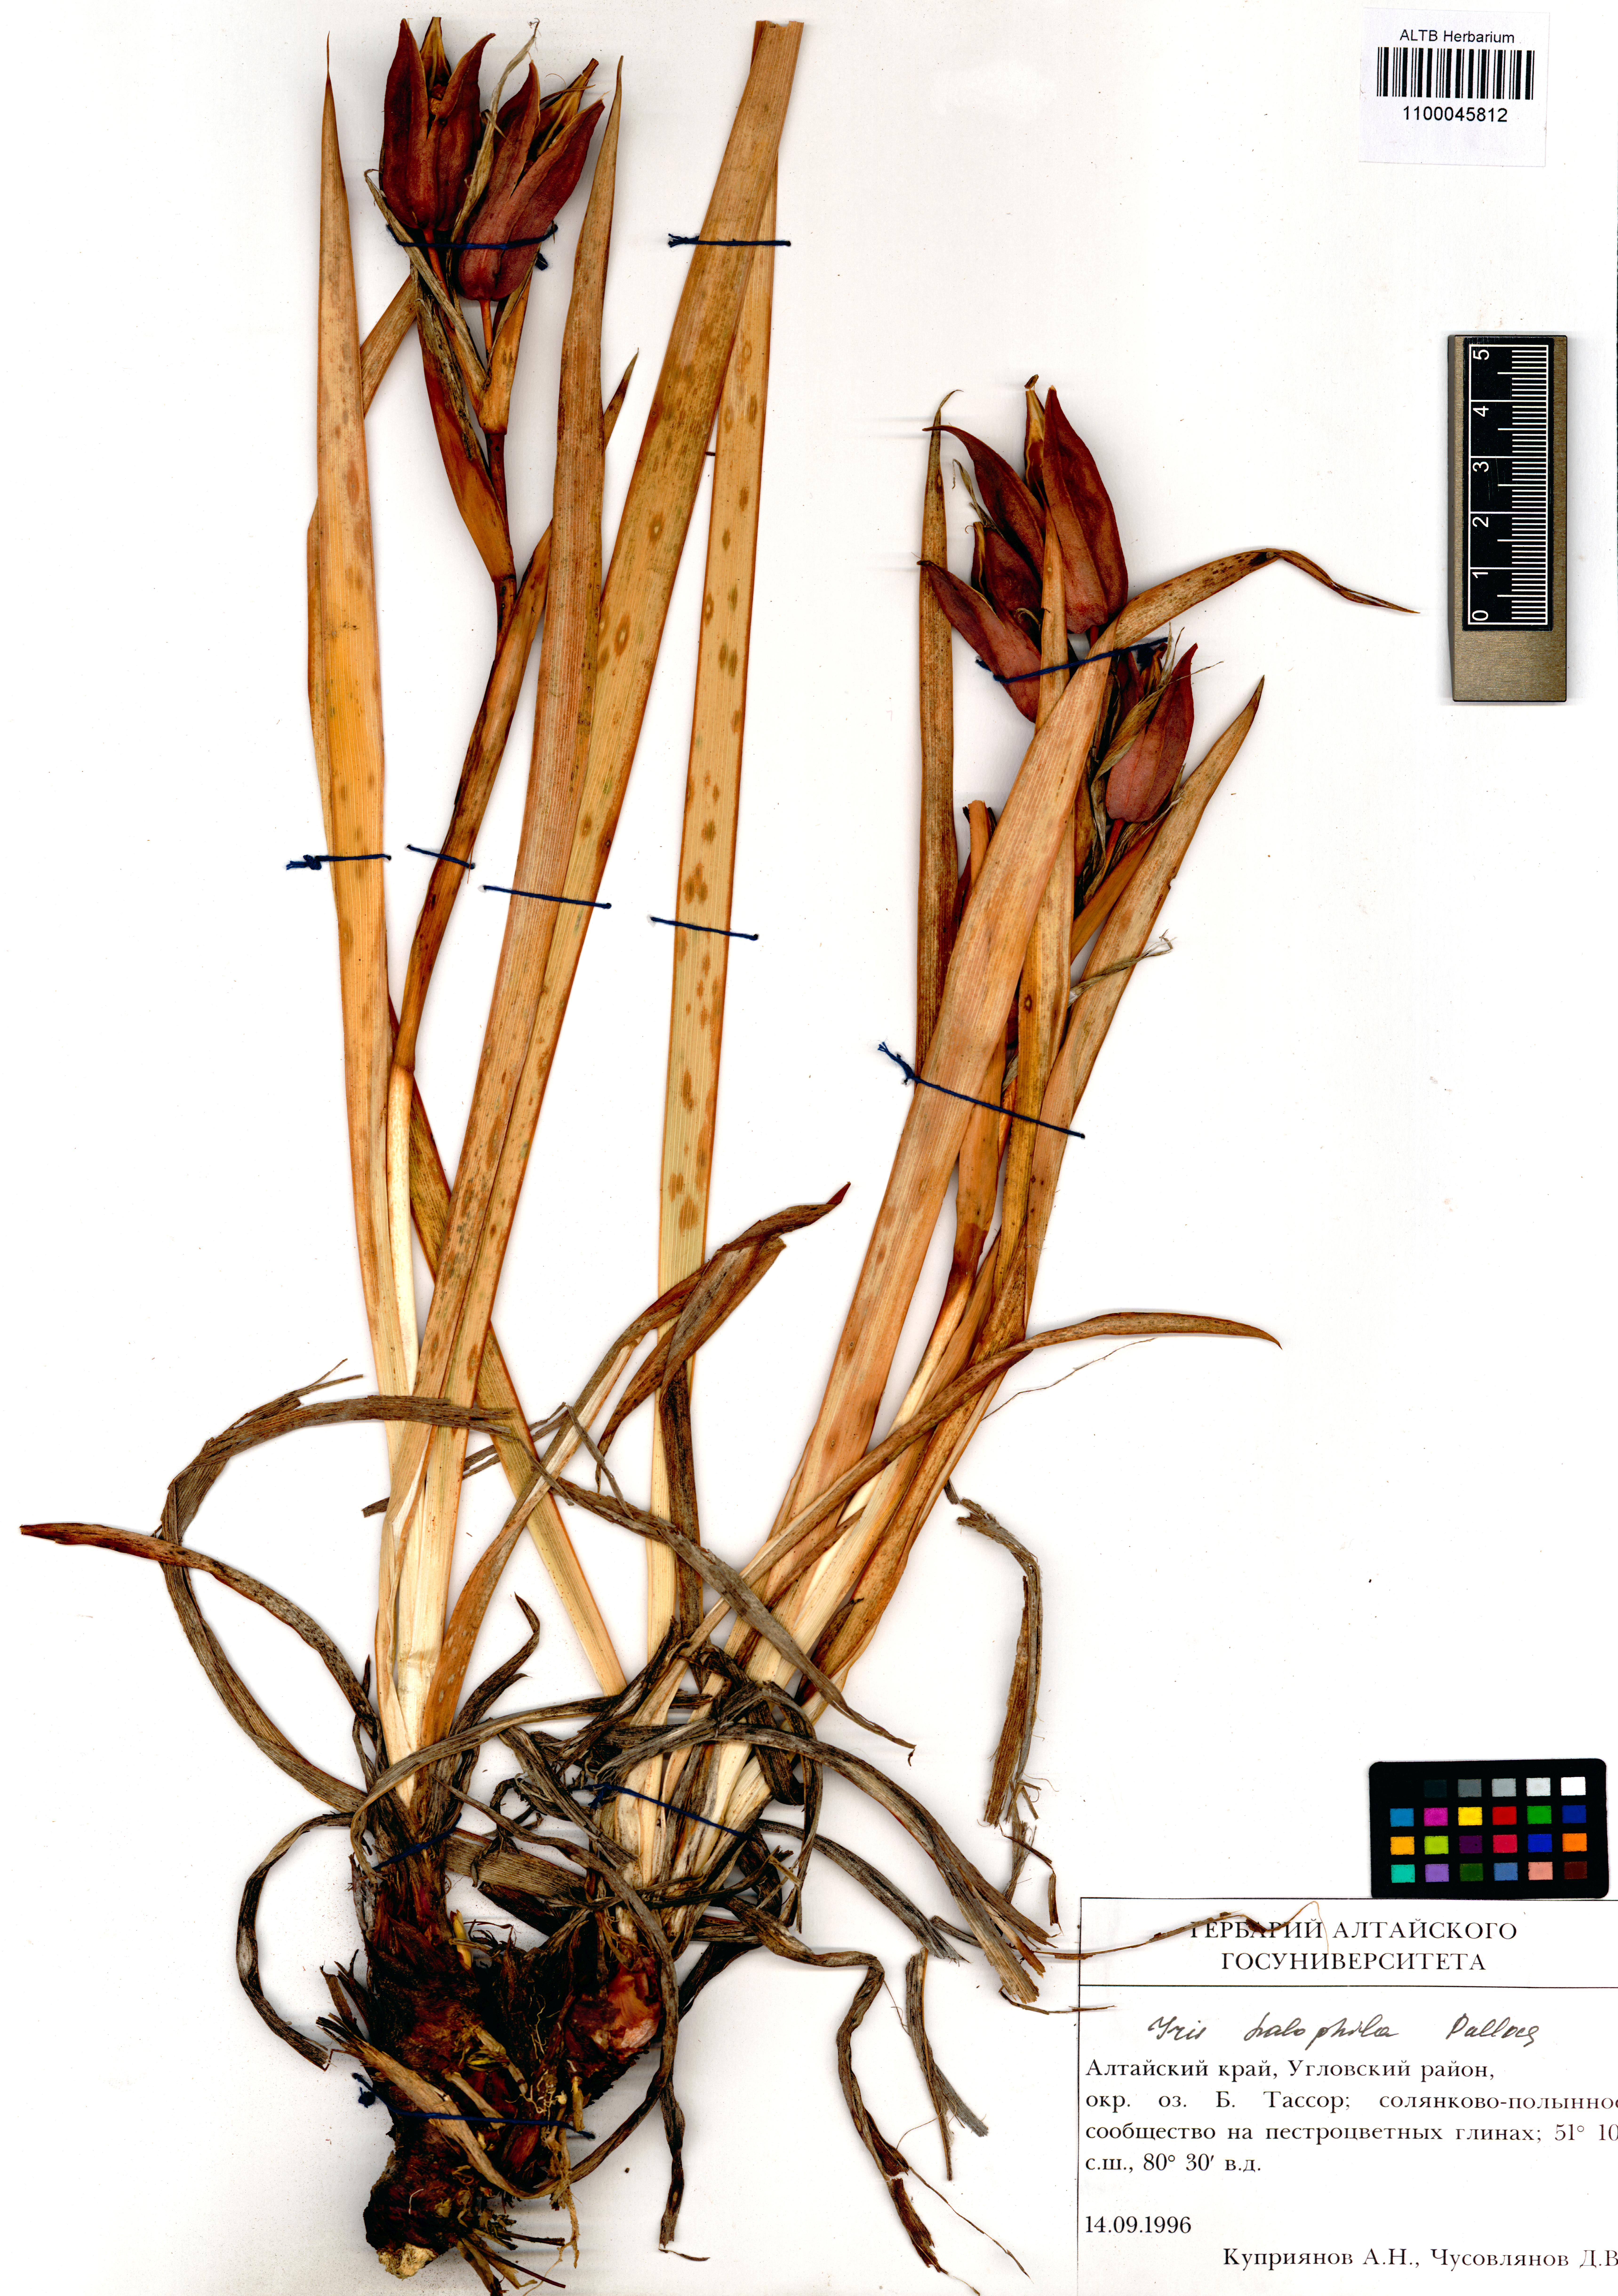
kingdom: Plantae
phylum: Tracheophyta
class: Liliopsida
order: Asparagales
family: Iridaceae
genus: Iris
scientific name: Iris halophila
